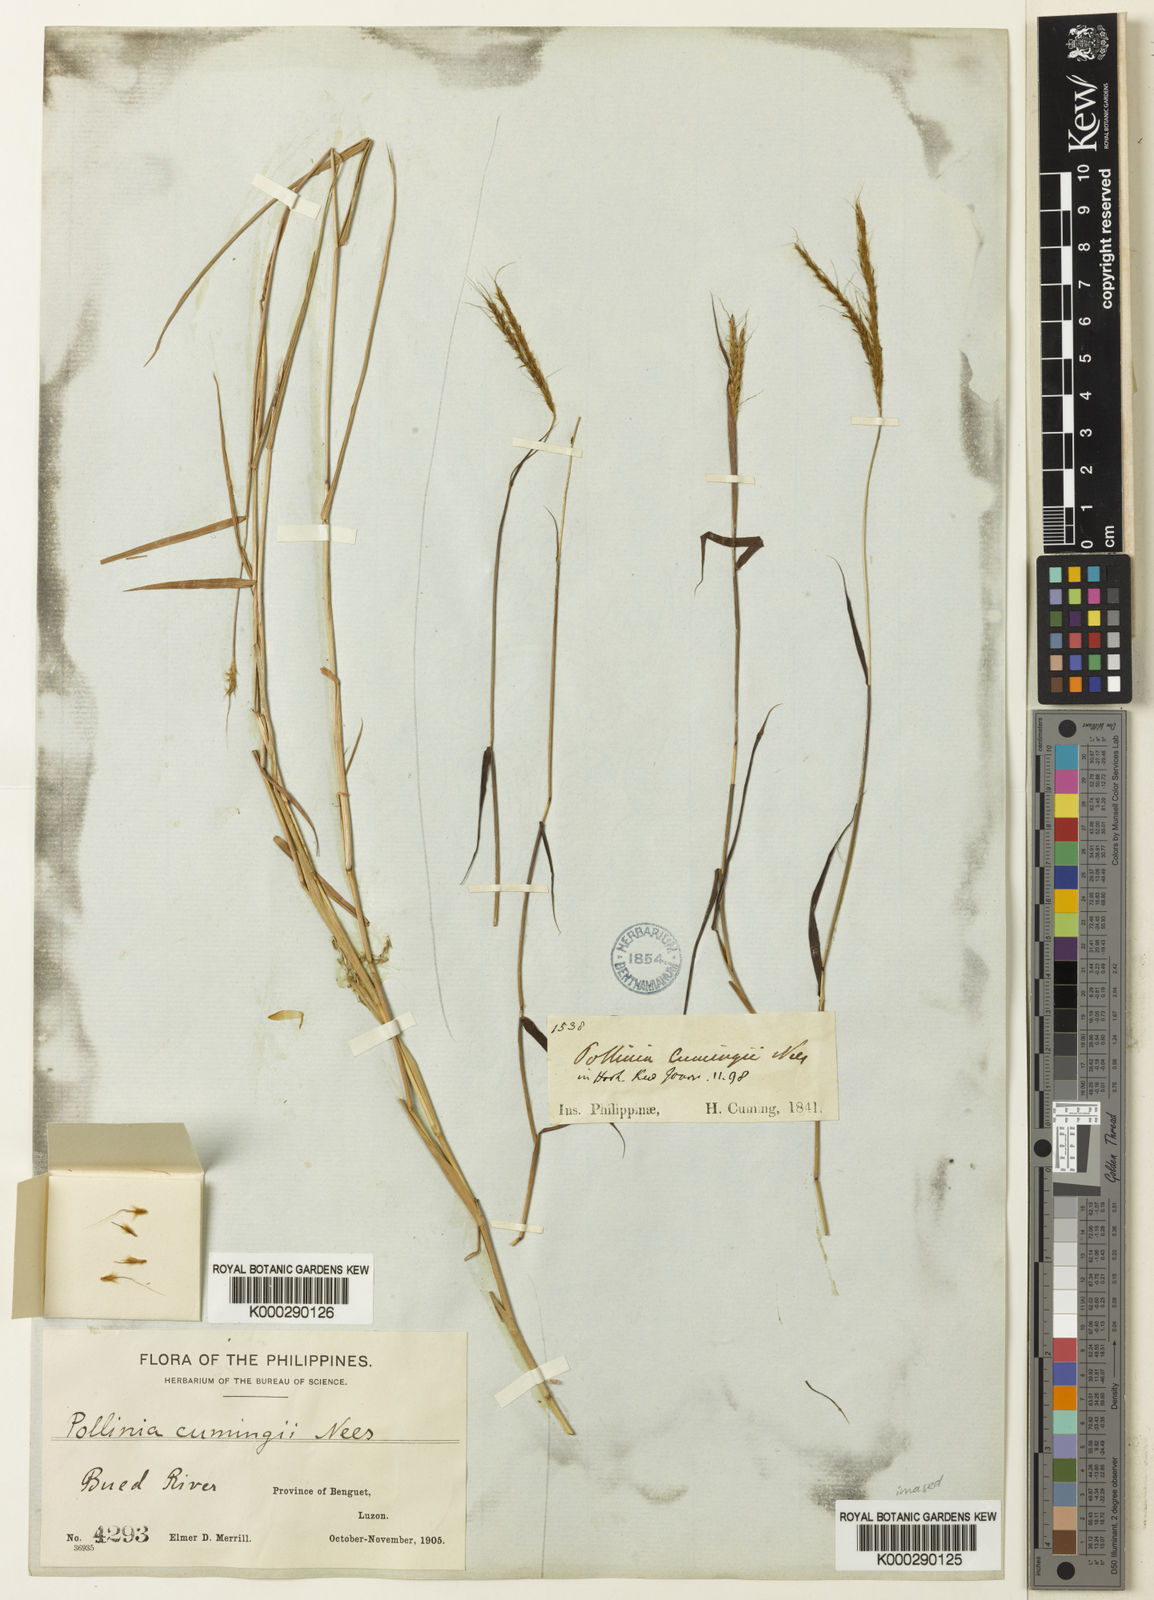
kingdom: Plantae
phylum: Tracheophyta
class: Liliopsida
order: Poales
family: Poaceae
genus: Eulalia
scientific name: Eulalia leschenaultiana
